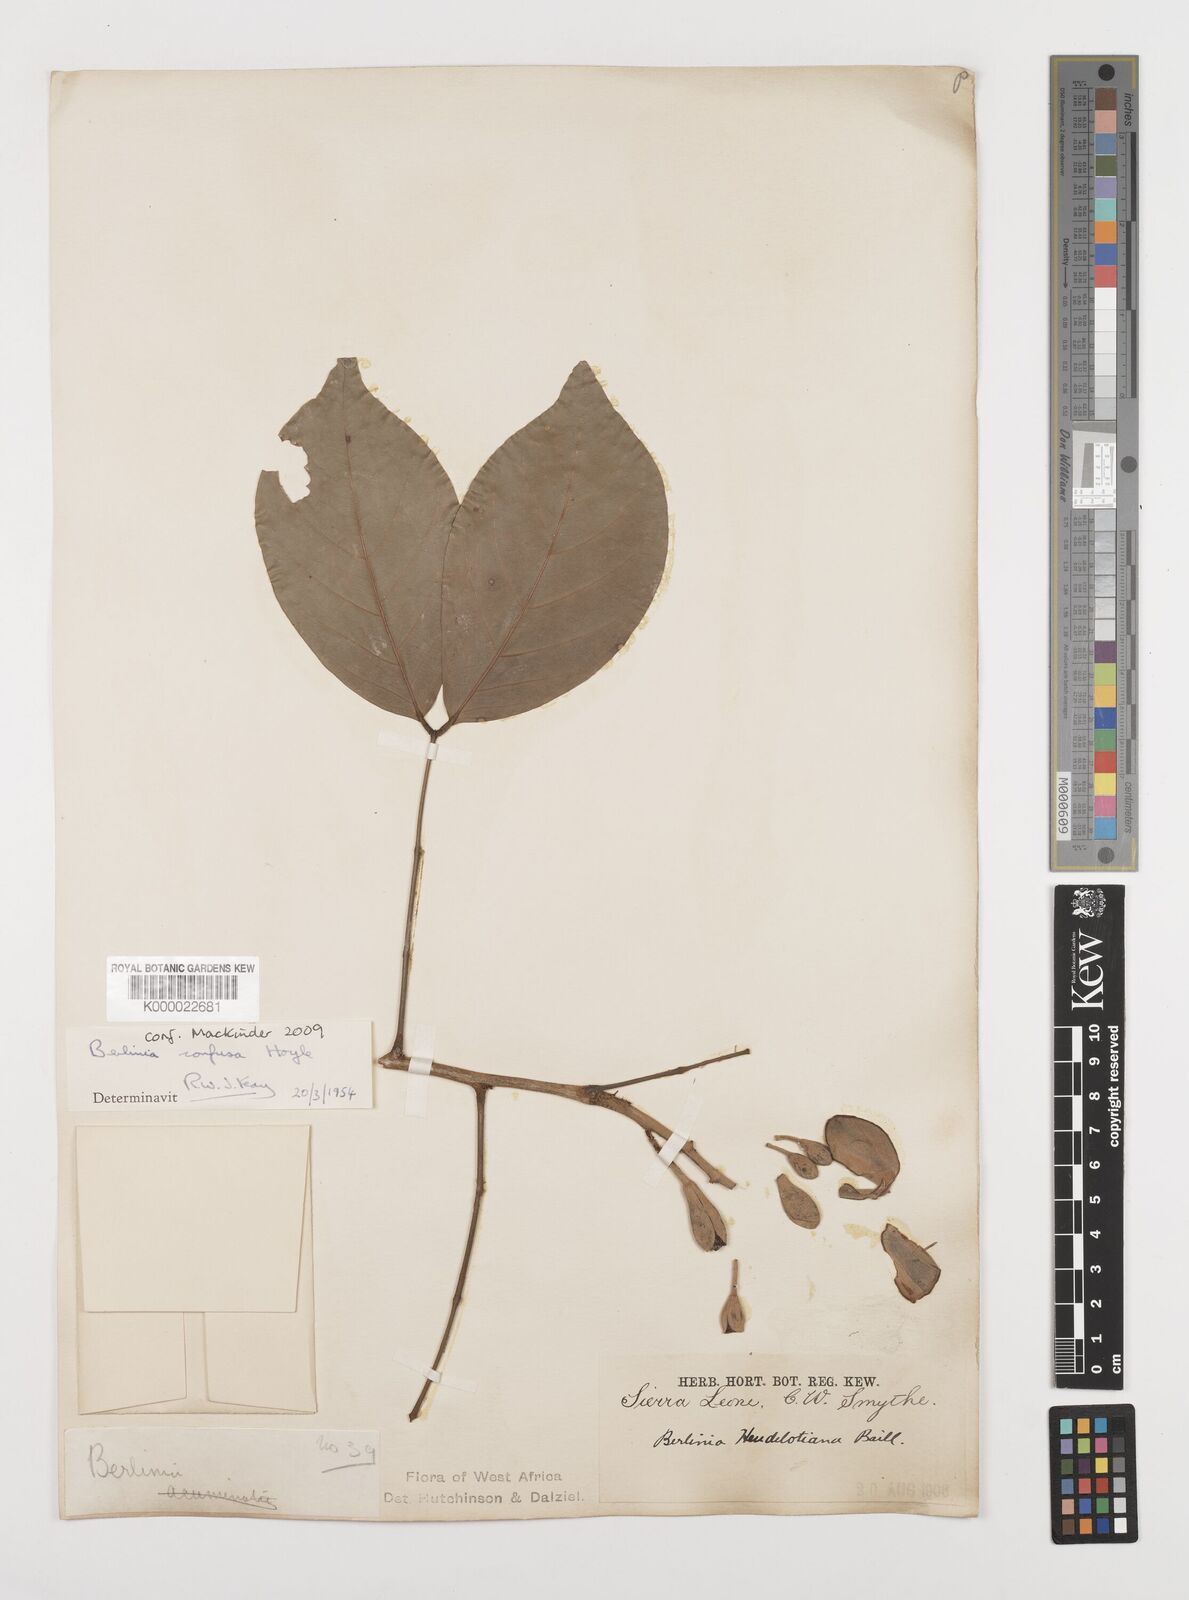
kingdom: Plantae
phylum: Tracheophyta
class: Magnoliopsida
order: Fabales
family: Fabaceae
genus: Berlinia
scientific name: Berlinia confusa
